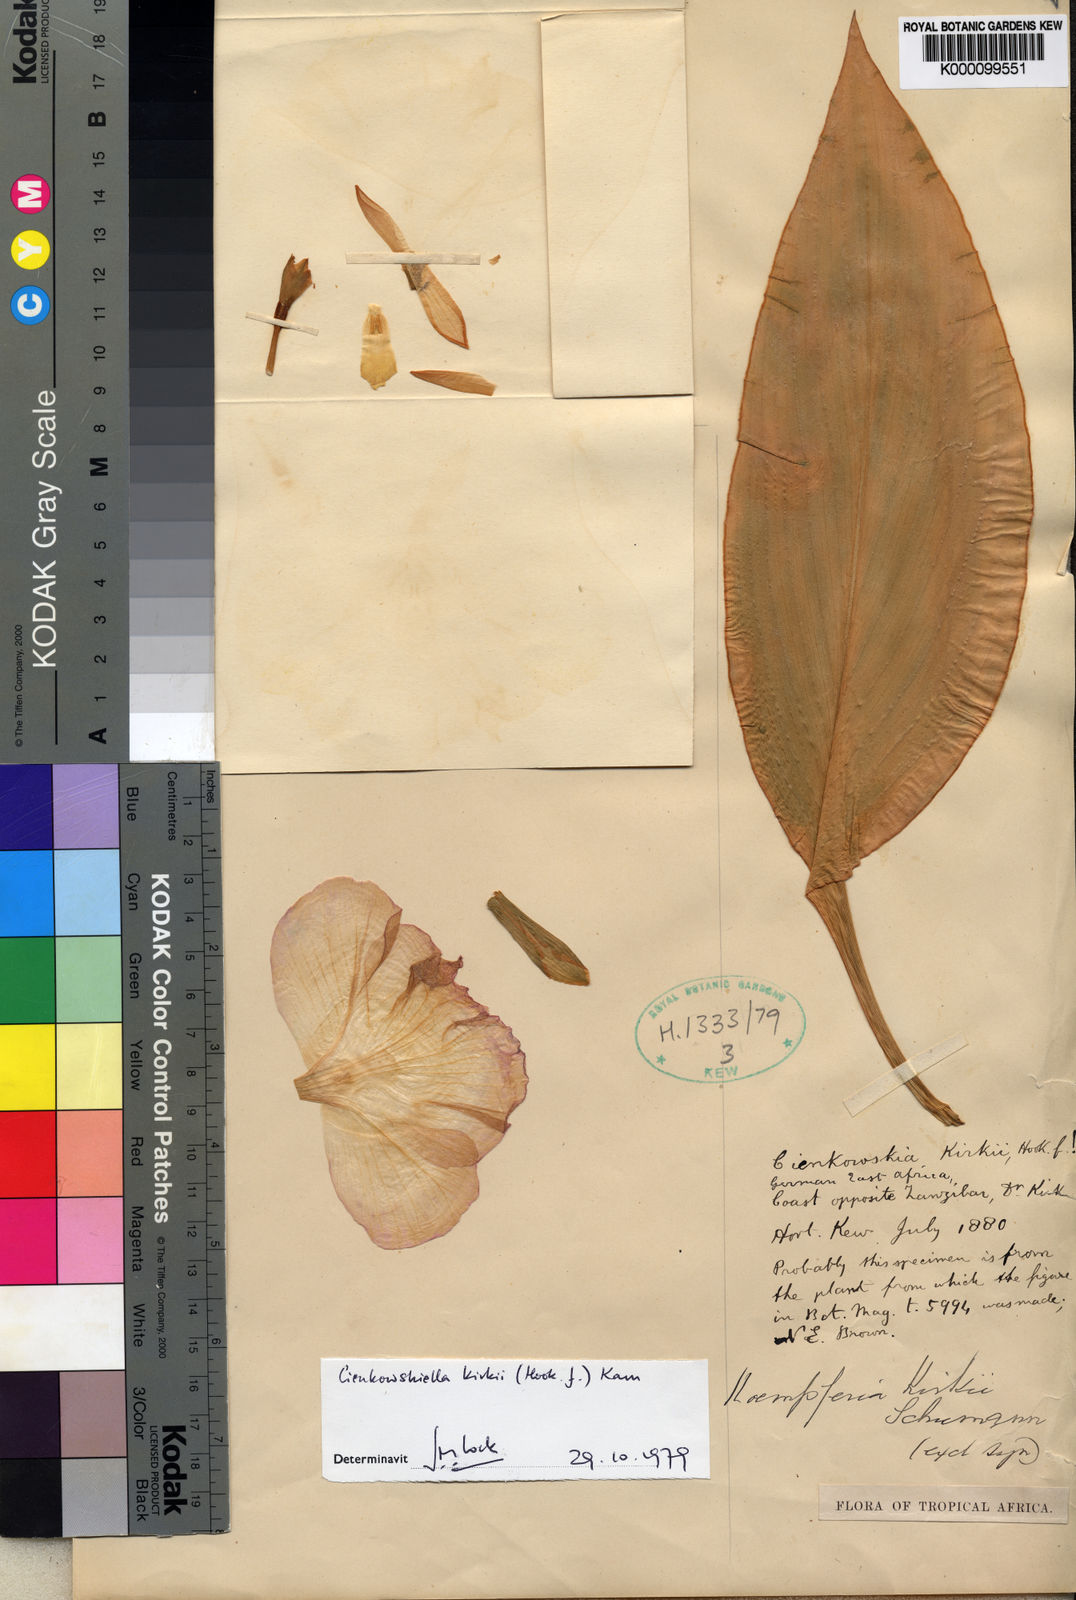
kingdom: Plantae
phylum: Tracheophyta
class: Liliopsida
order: Zingiberales
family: Zingiberaceae
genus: Siphonochilus
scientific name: Siphonochilus kirkii
